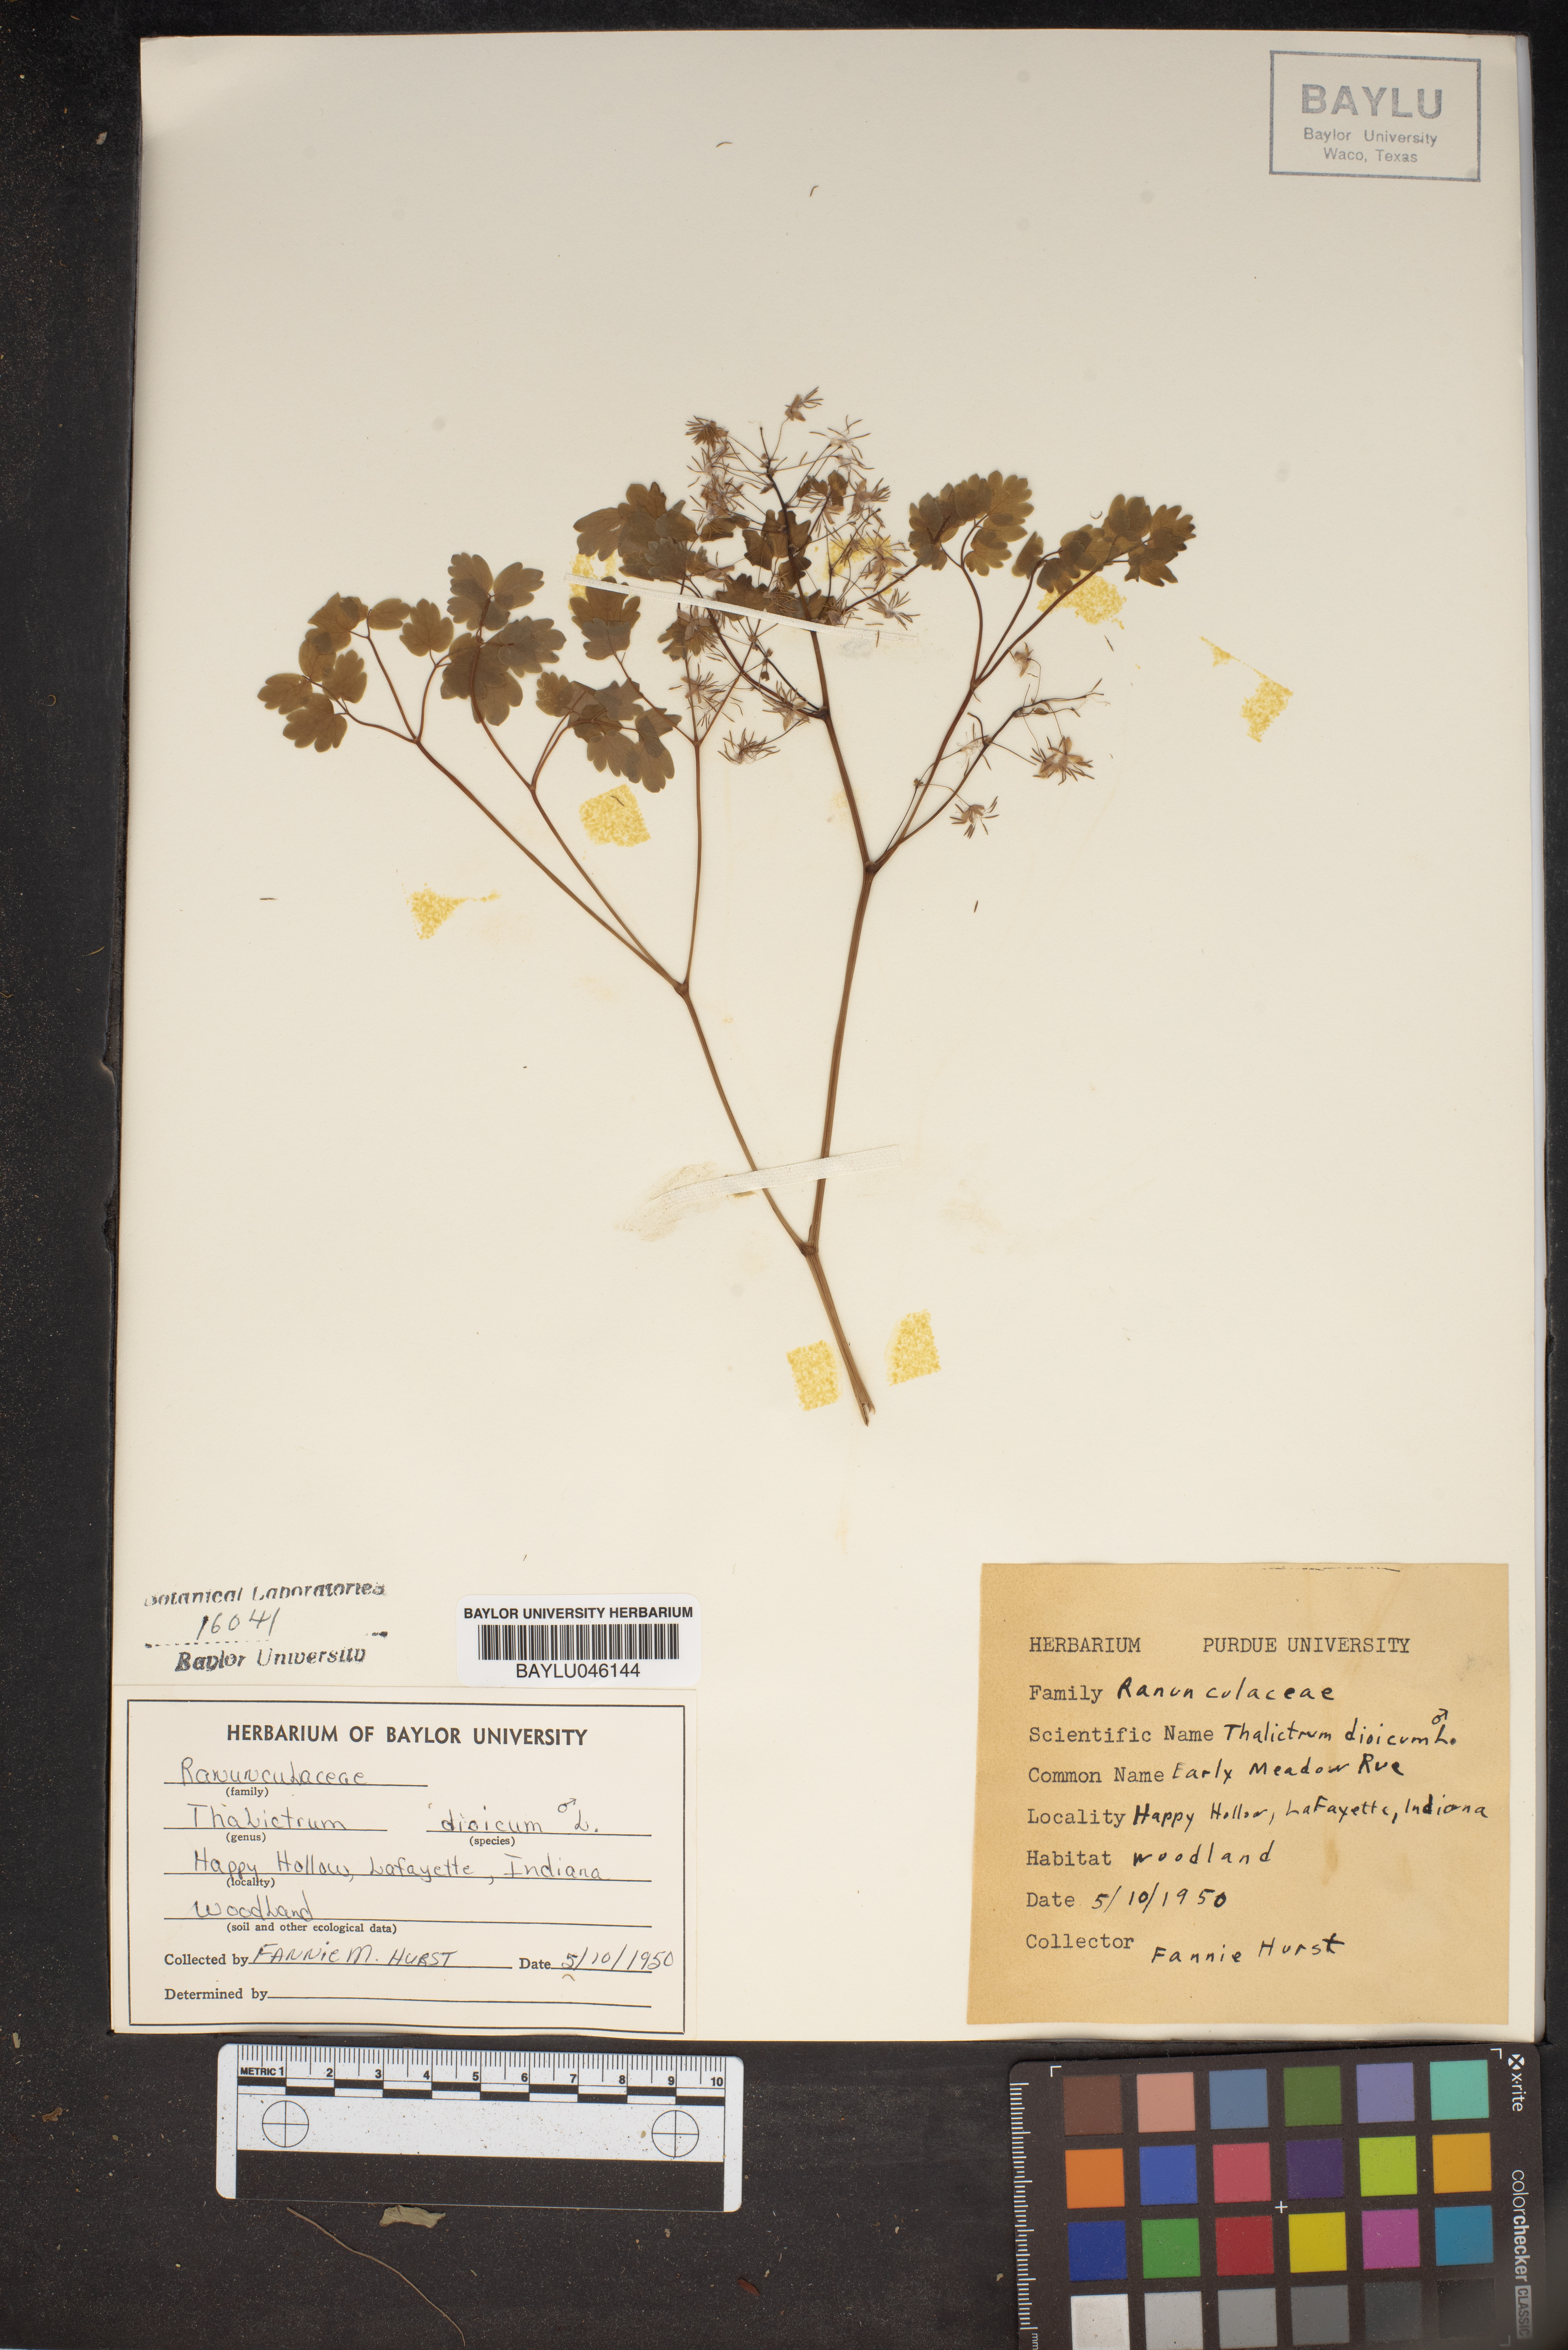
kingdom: Plantae
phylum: Tracheophyta
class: Magnoliopsida
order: Ranunculales
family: Ranunculaceae
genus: Thalictrum
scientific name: Thalictrum dioicum
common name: Early meadow-rue
